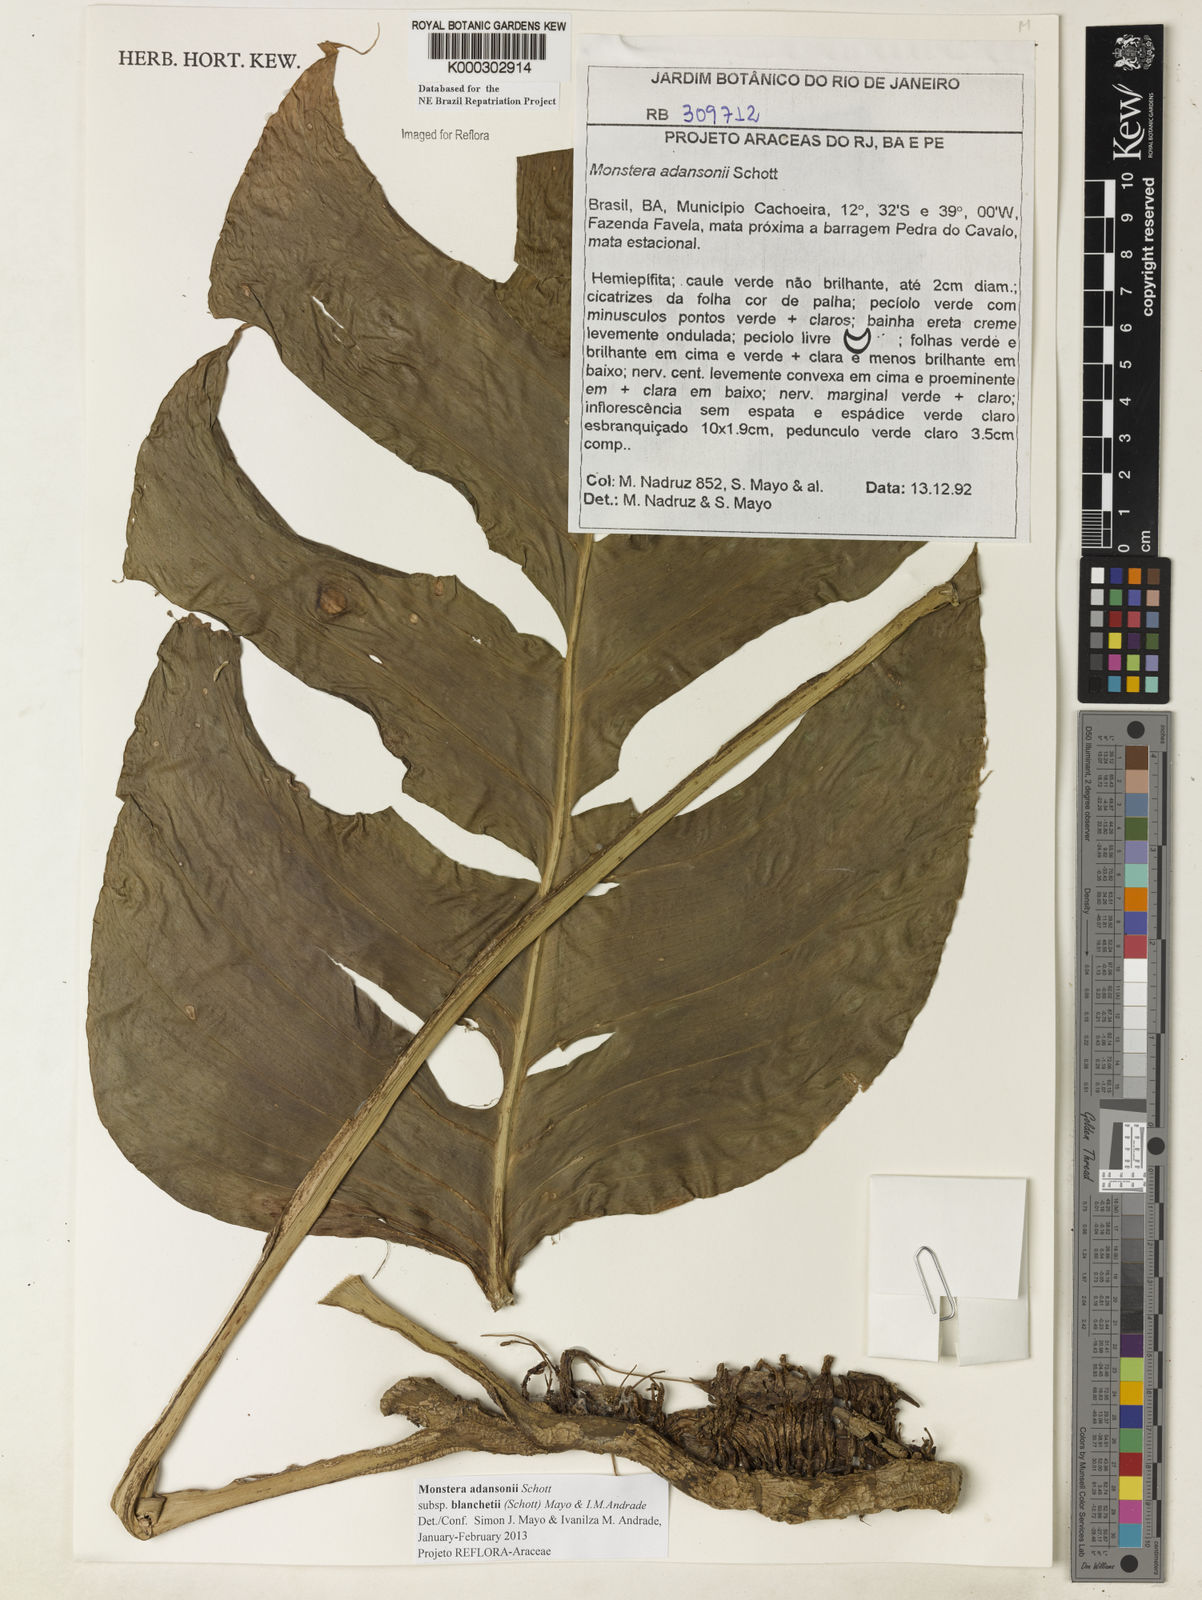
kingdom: Plantae
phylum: Tracheophyta
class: Liliopsida
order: Alismatales
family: Araceae
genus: Monstera
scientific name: Monstera adansonii
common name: Tarovine
